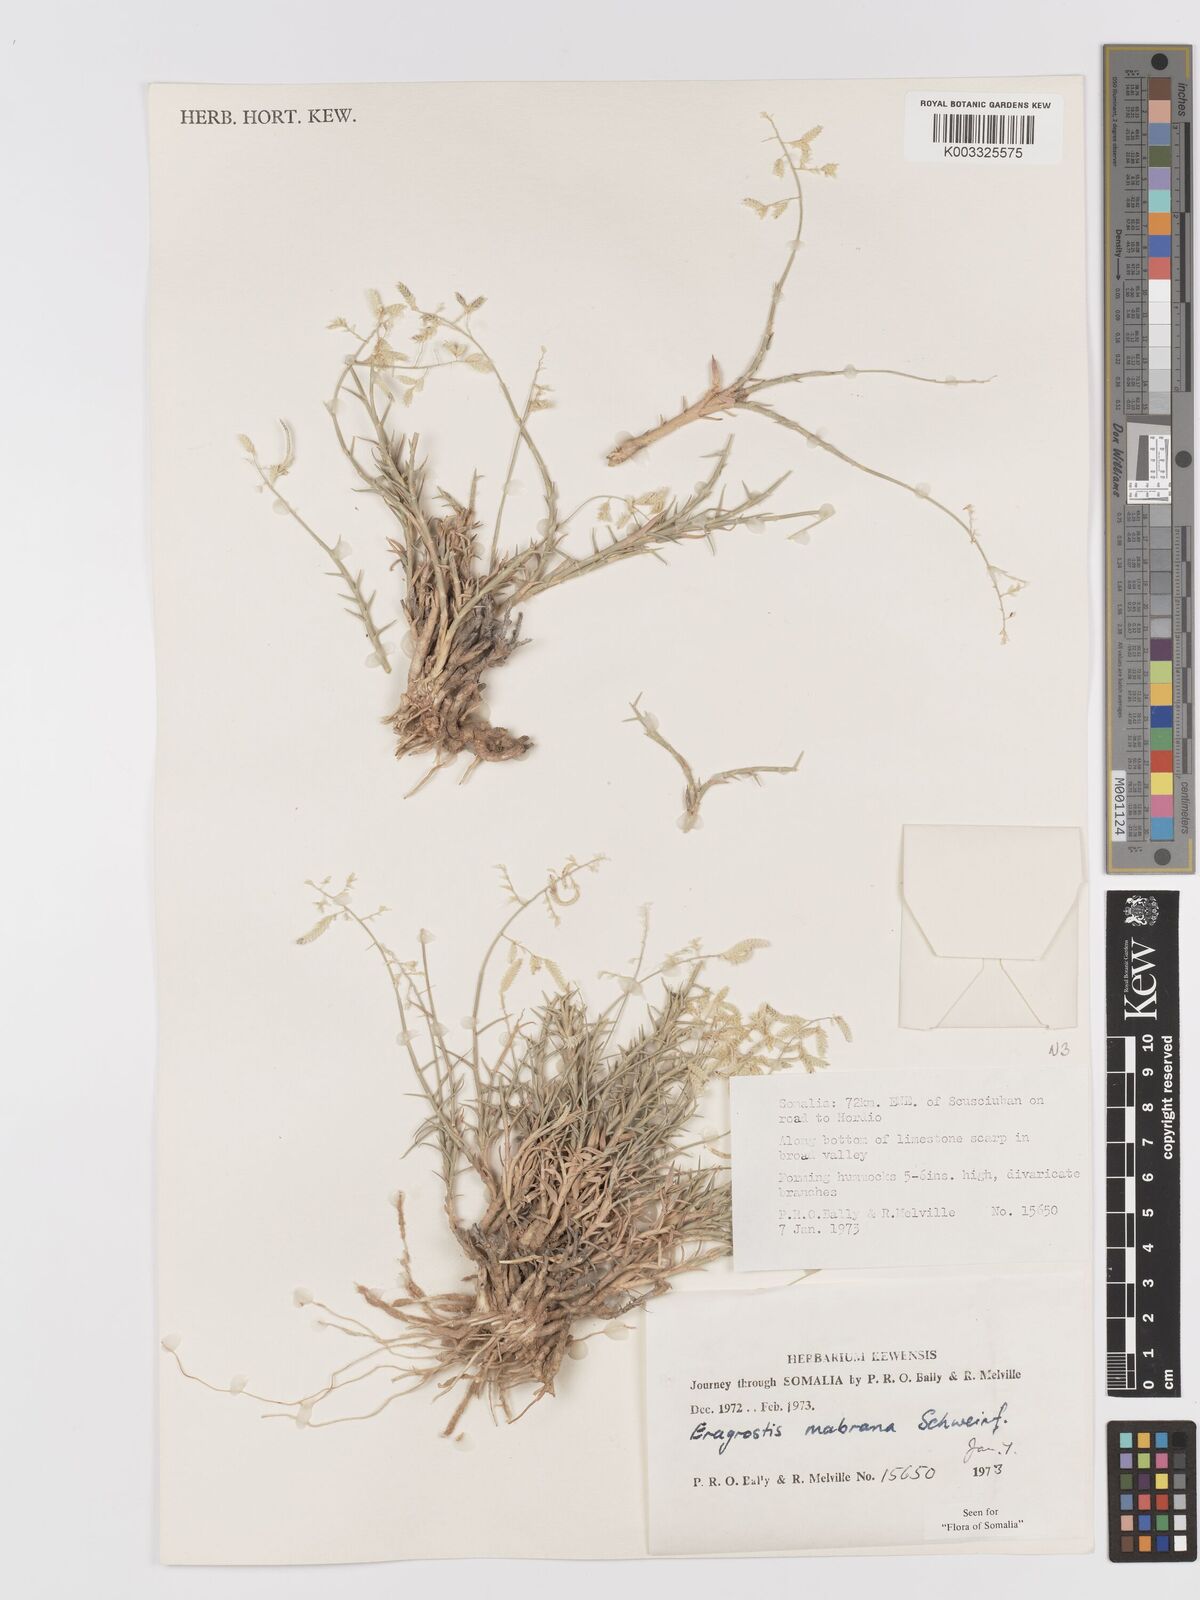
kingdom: Plantae
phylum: Tracheophyta
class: Liliopsida
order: Poales
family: Poaceae
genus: Eragrostis
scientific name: Eragrostis mahrana
